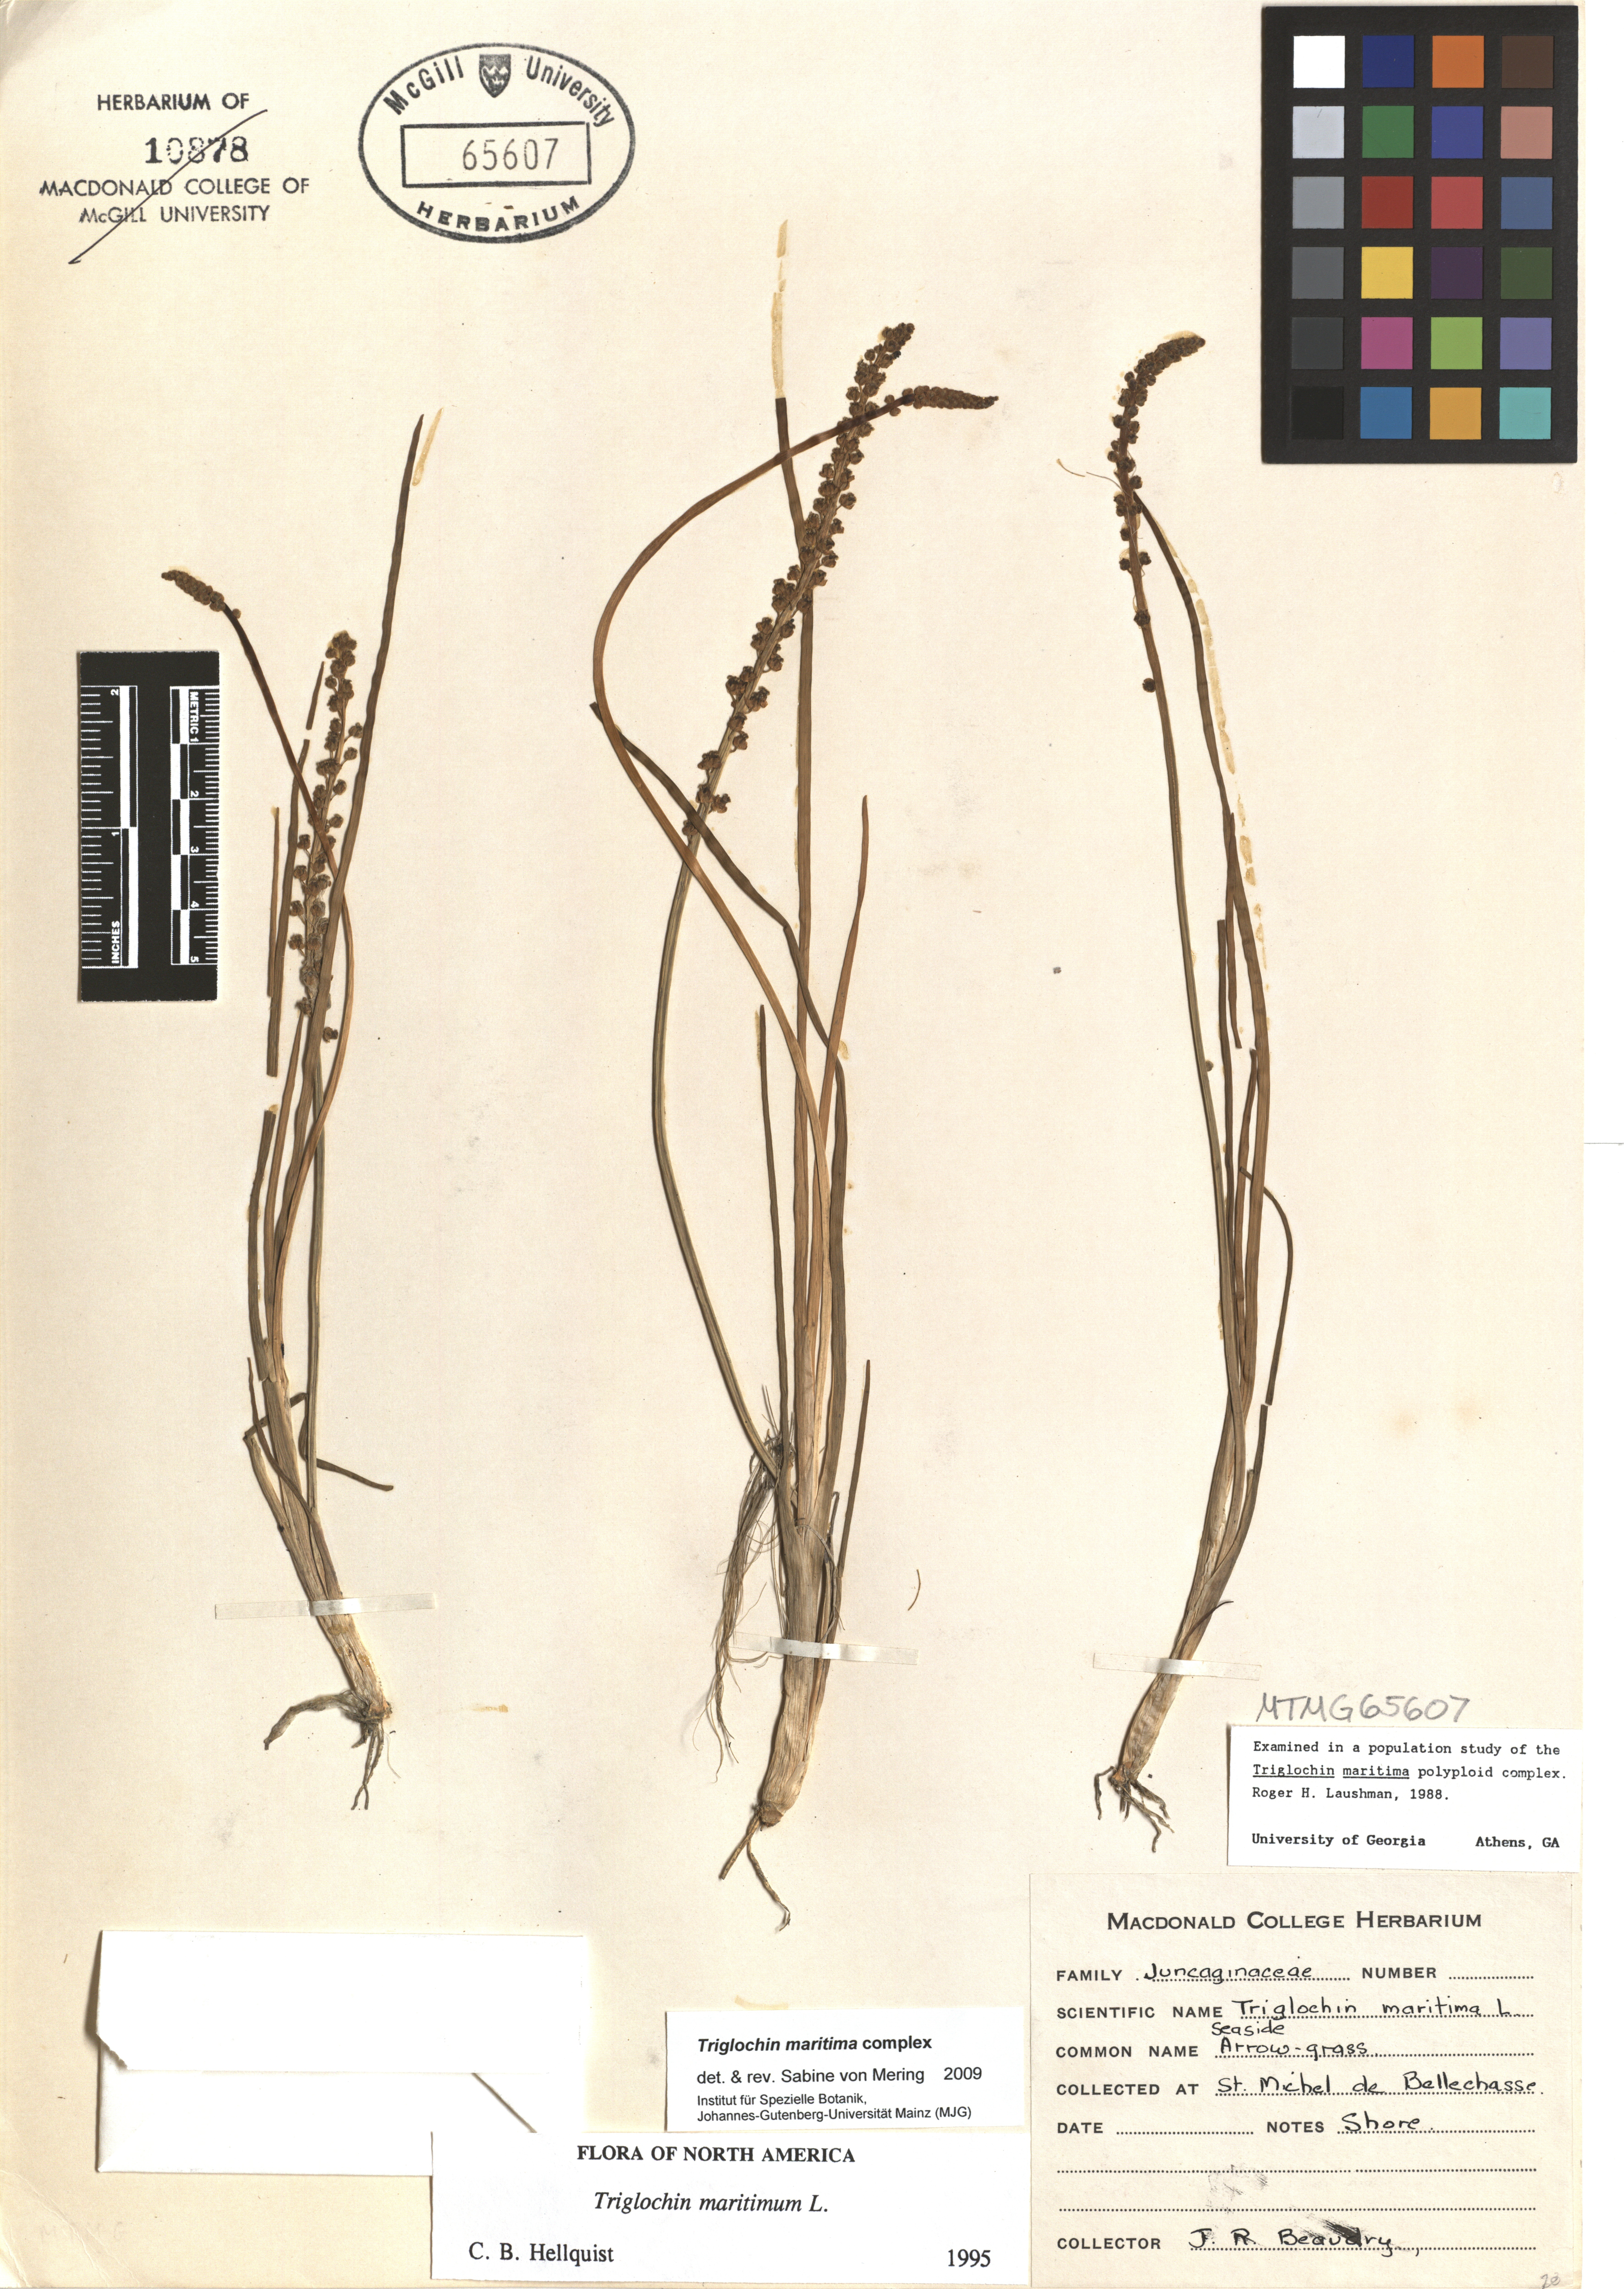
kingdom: Plantae
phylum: Tracheophyta
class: Liliopsida
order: Alismatales
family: Juncaginaceae
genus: Triglochin
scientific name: Triglochin maritima
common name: Sea arrowgrass
